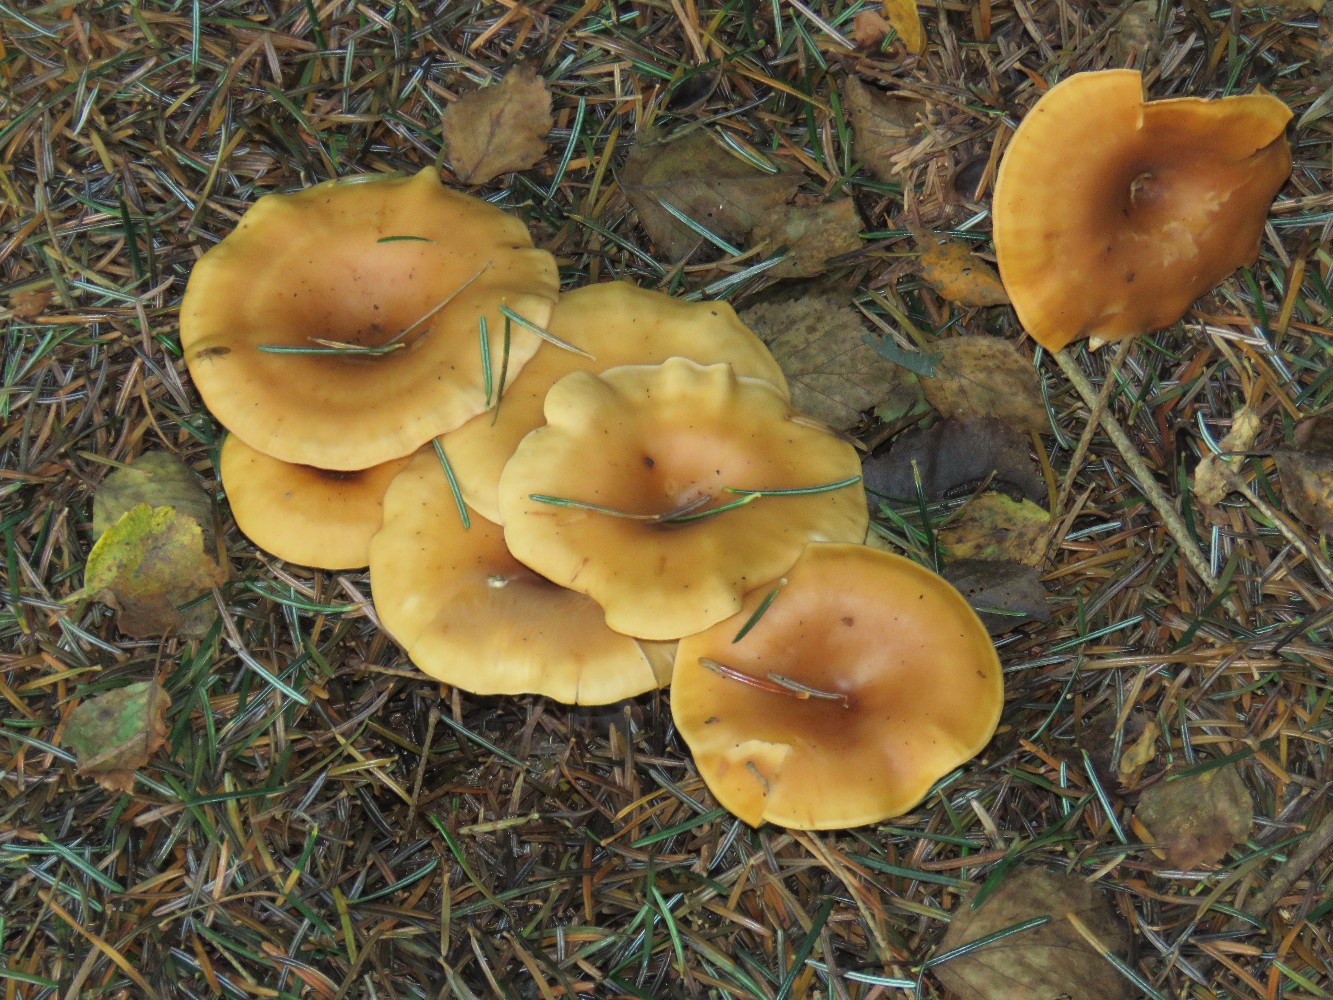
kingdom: Fungi
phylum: Basidiomycota
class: Agaricomycetes
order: Agaricales
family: Tricholomataceae
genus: Paralepista
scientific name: Paralepista flaccida
